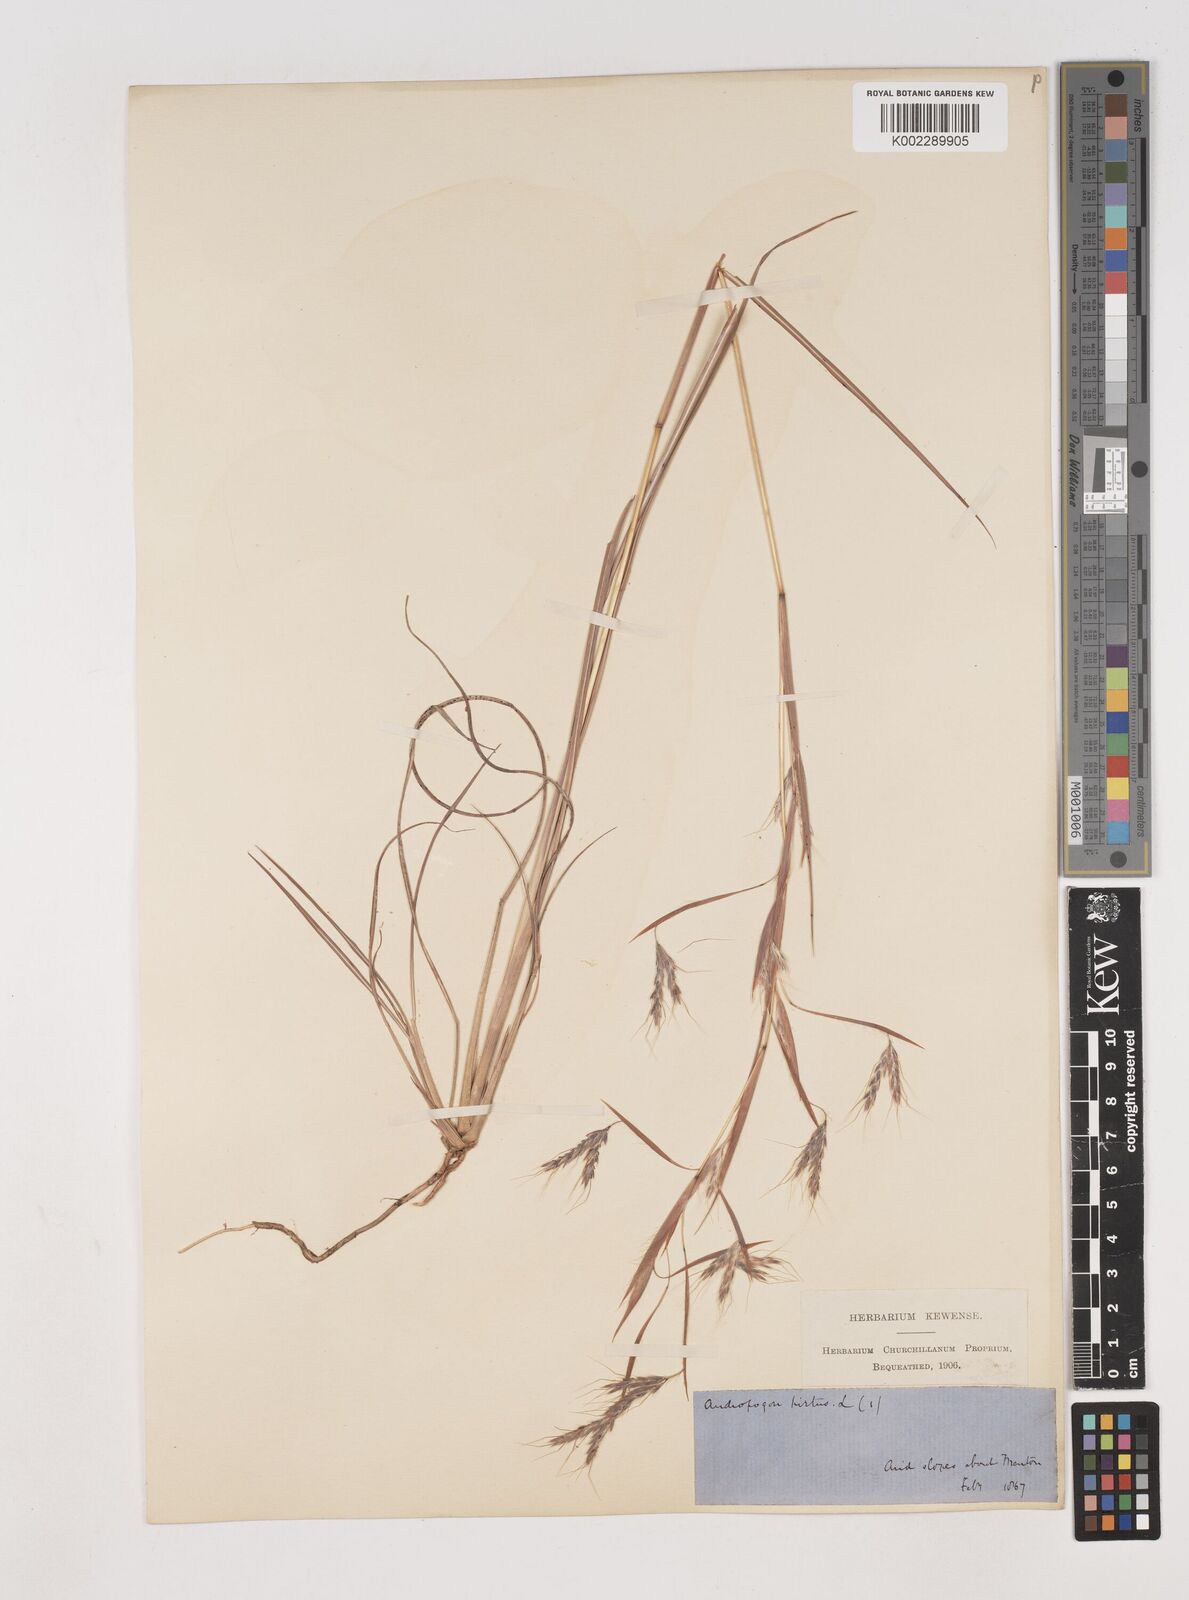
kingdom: Plantae
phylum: Tracheophyta
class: Liliopsida
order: Poales
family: Poaceae
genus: Hyparrhenia
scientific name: Hyparrhenia hirta
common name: Thatching grass
